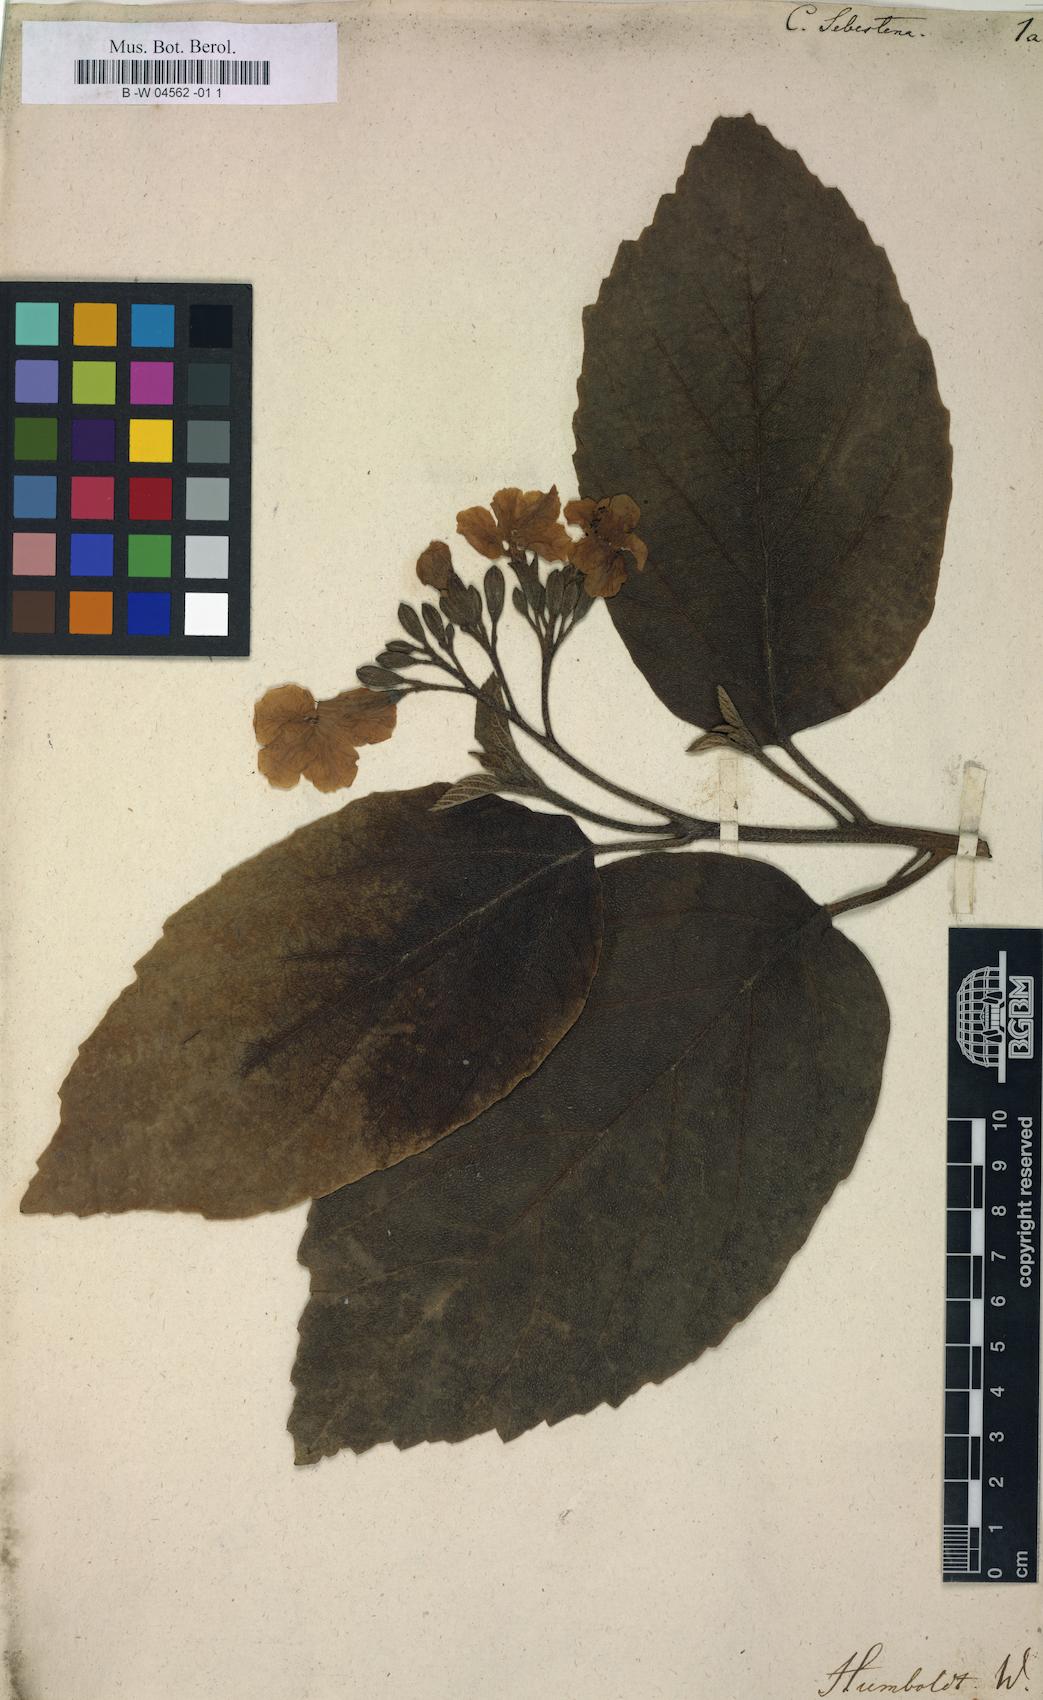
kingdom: Plantae
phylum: Tracheophyta
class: Magnoliopsida
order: Boraginales
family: Cordiaceae
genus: Cordia
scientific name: Cordia sebestena
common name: Largeleaf geigertree
